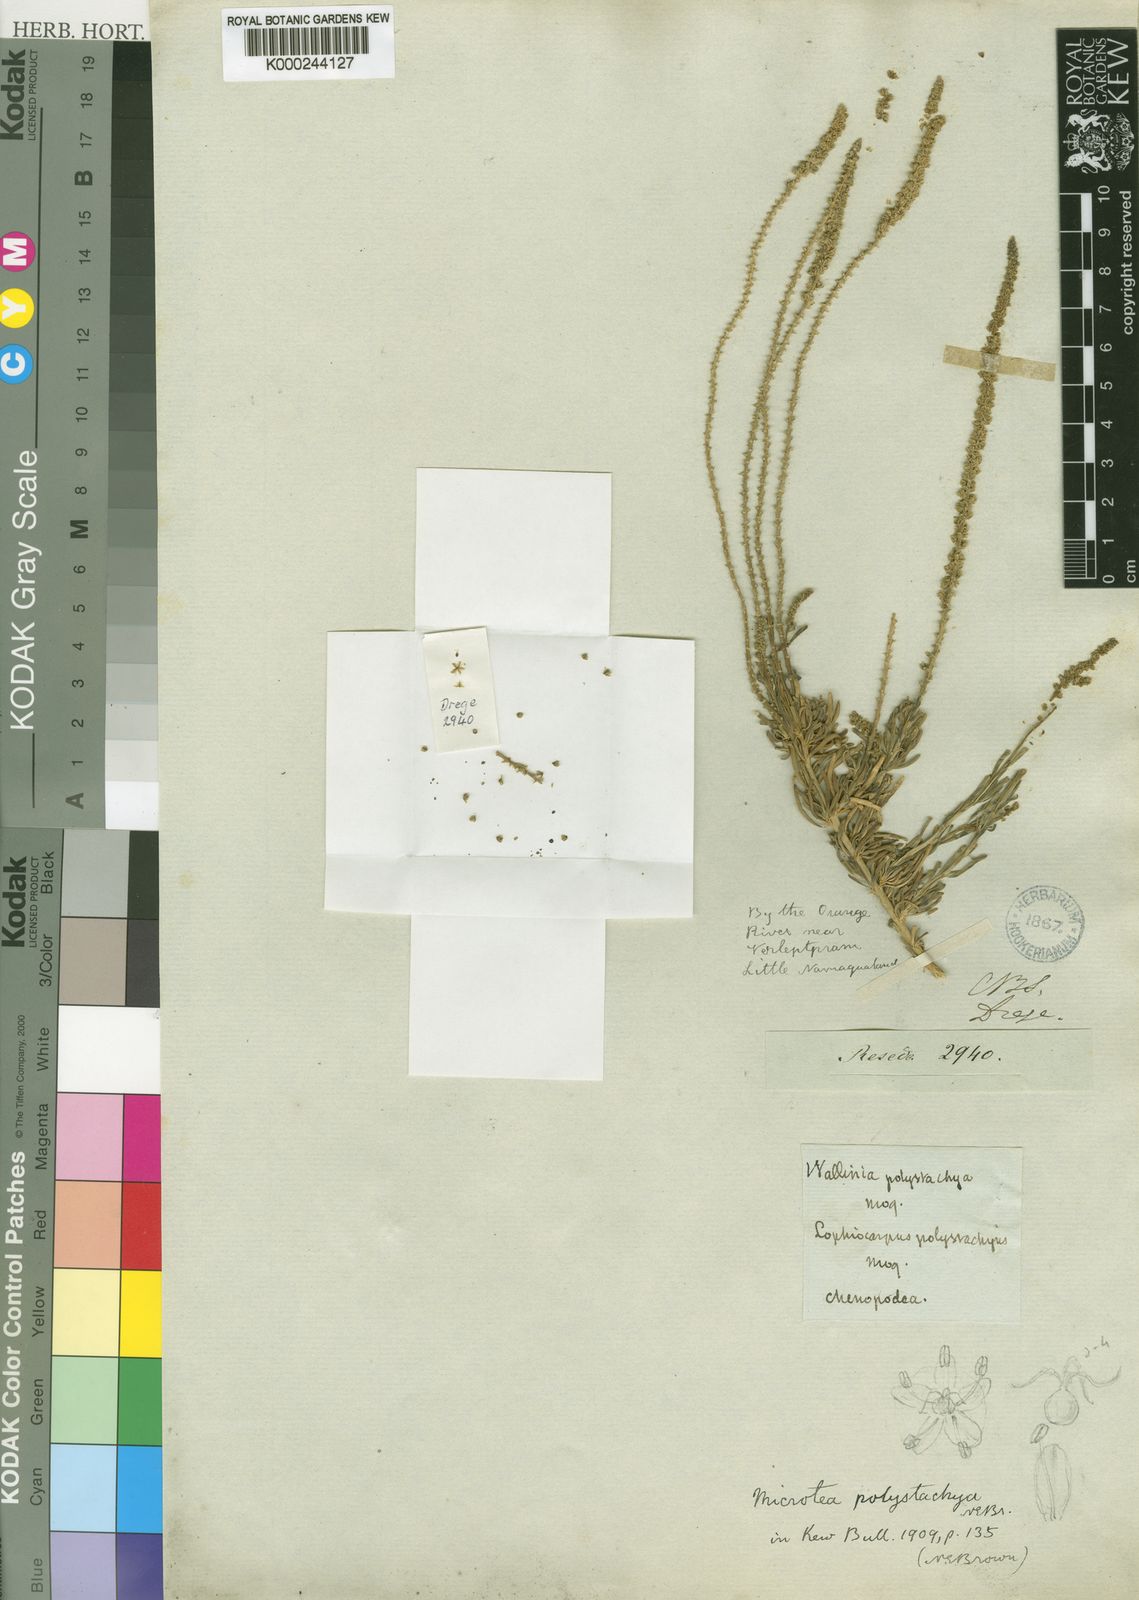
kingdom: Plantae
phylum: Tracheophyta
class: Magnoliopsida
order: Caryophyllales
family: Lophiocarpaceae
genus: Lophiocarpus
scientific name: Lophiocarpus polystachyus
